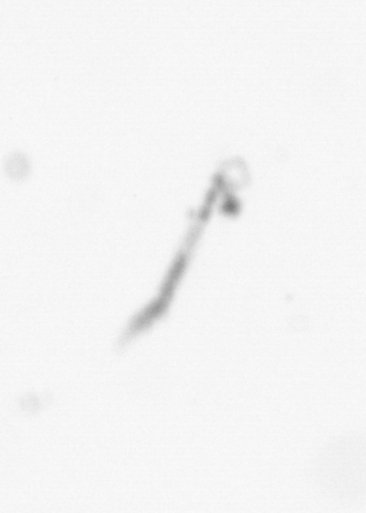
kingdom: Chromista
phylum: Ochrophyta
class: Bacillariophyceae
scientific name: Bacillariophyceae
